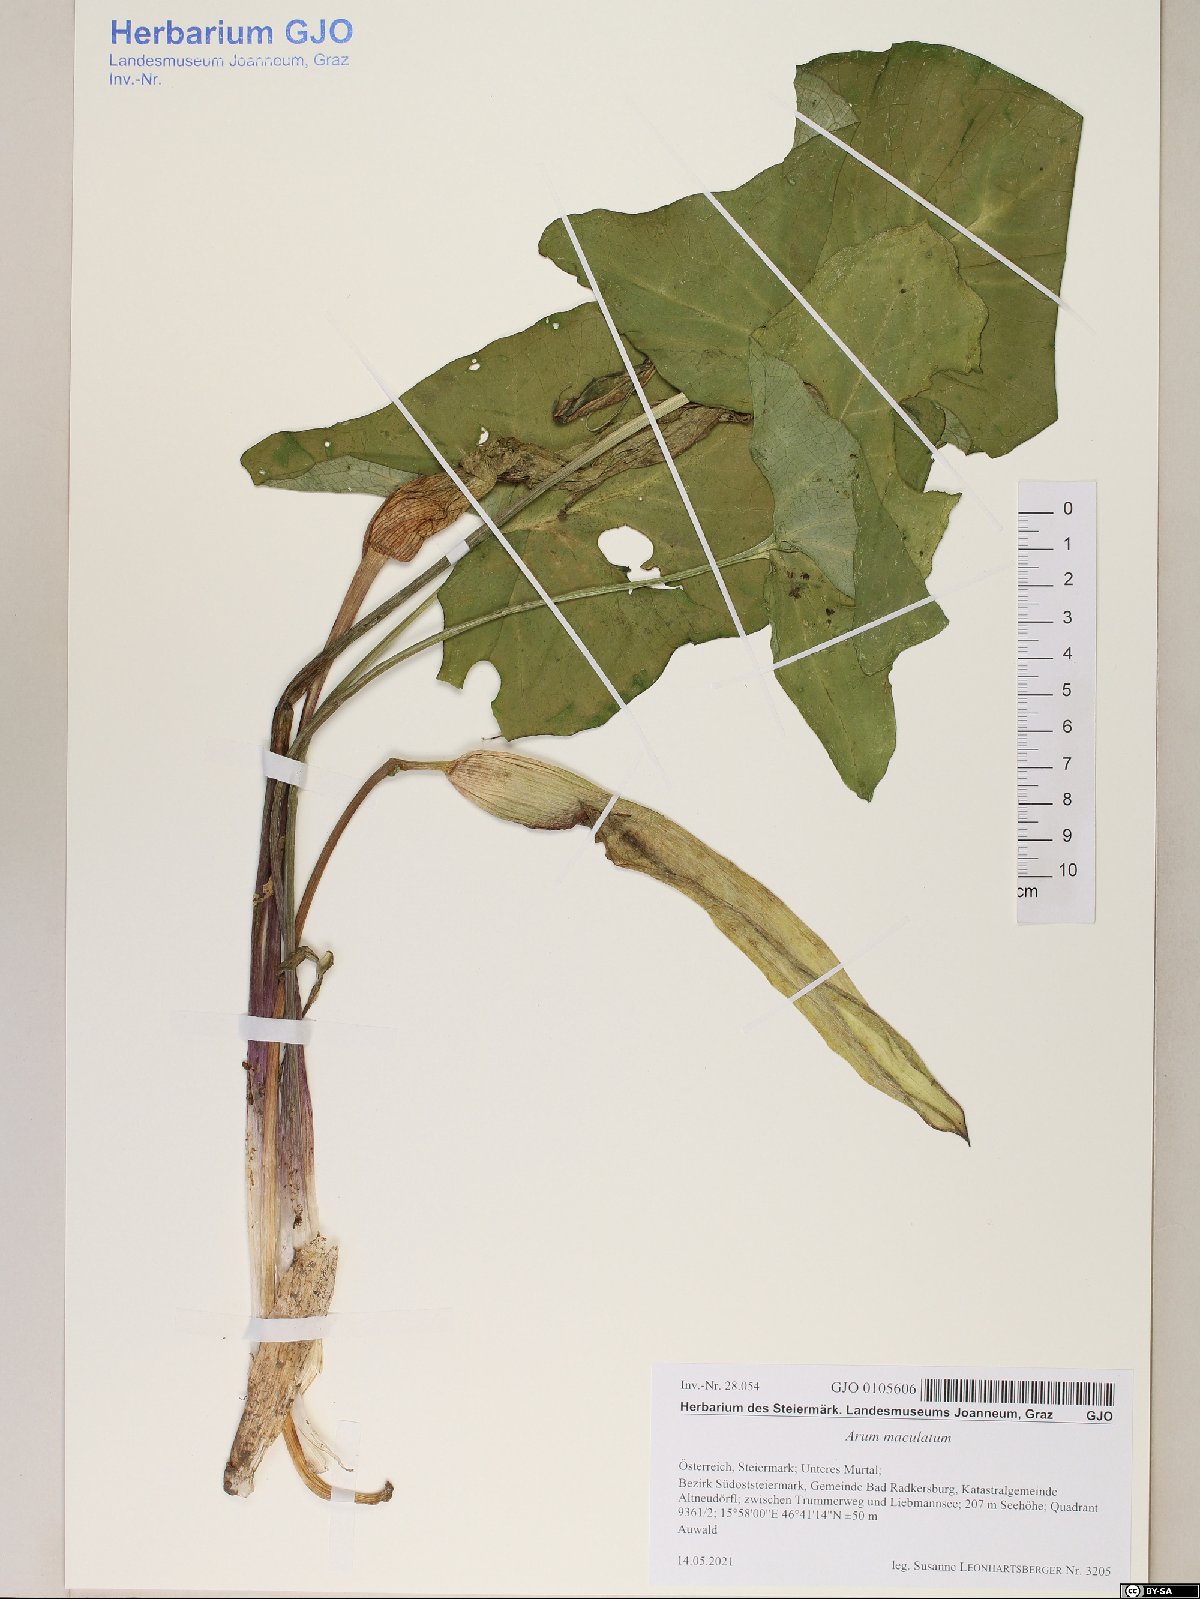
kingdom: Plantae
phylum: Tracheophyta
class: Liliopsida
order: Alismatales
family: Araceae
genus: Arum
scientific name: Arum maculatum
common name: Lords-and-ladies
